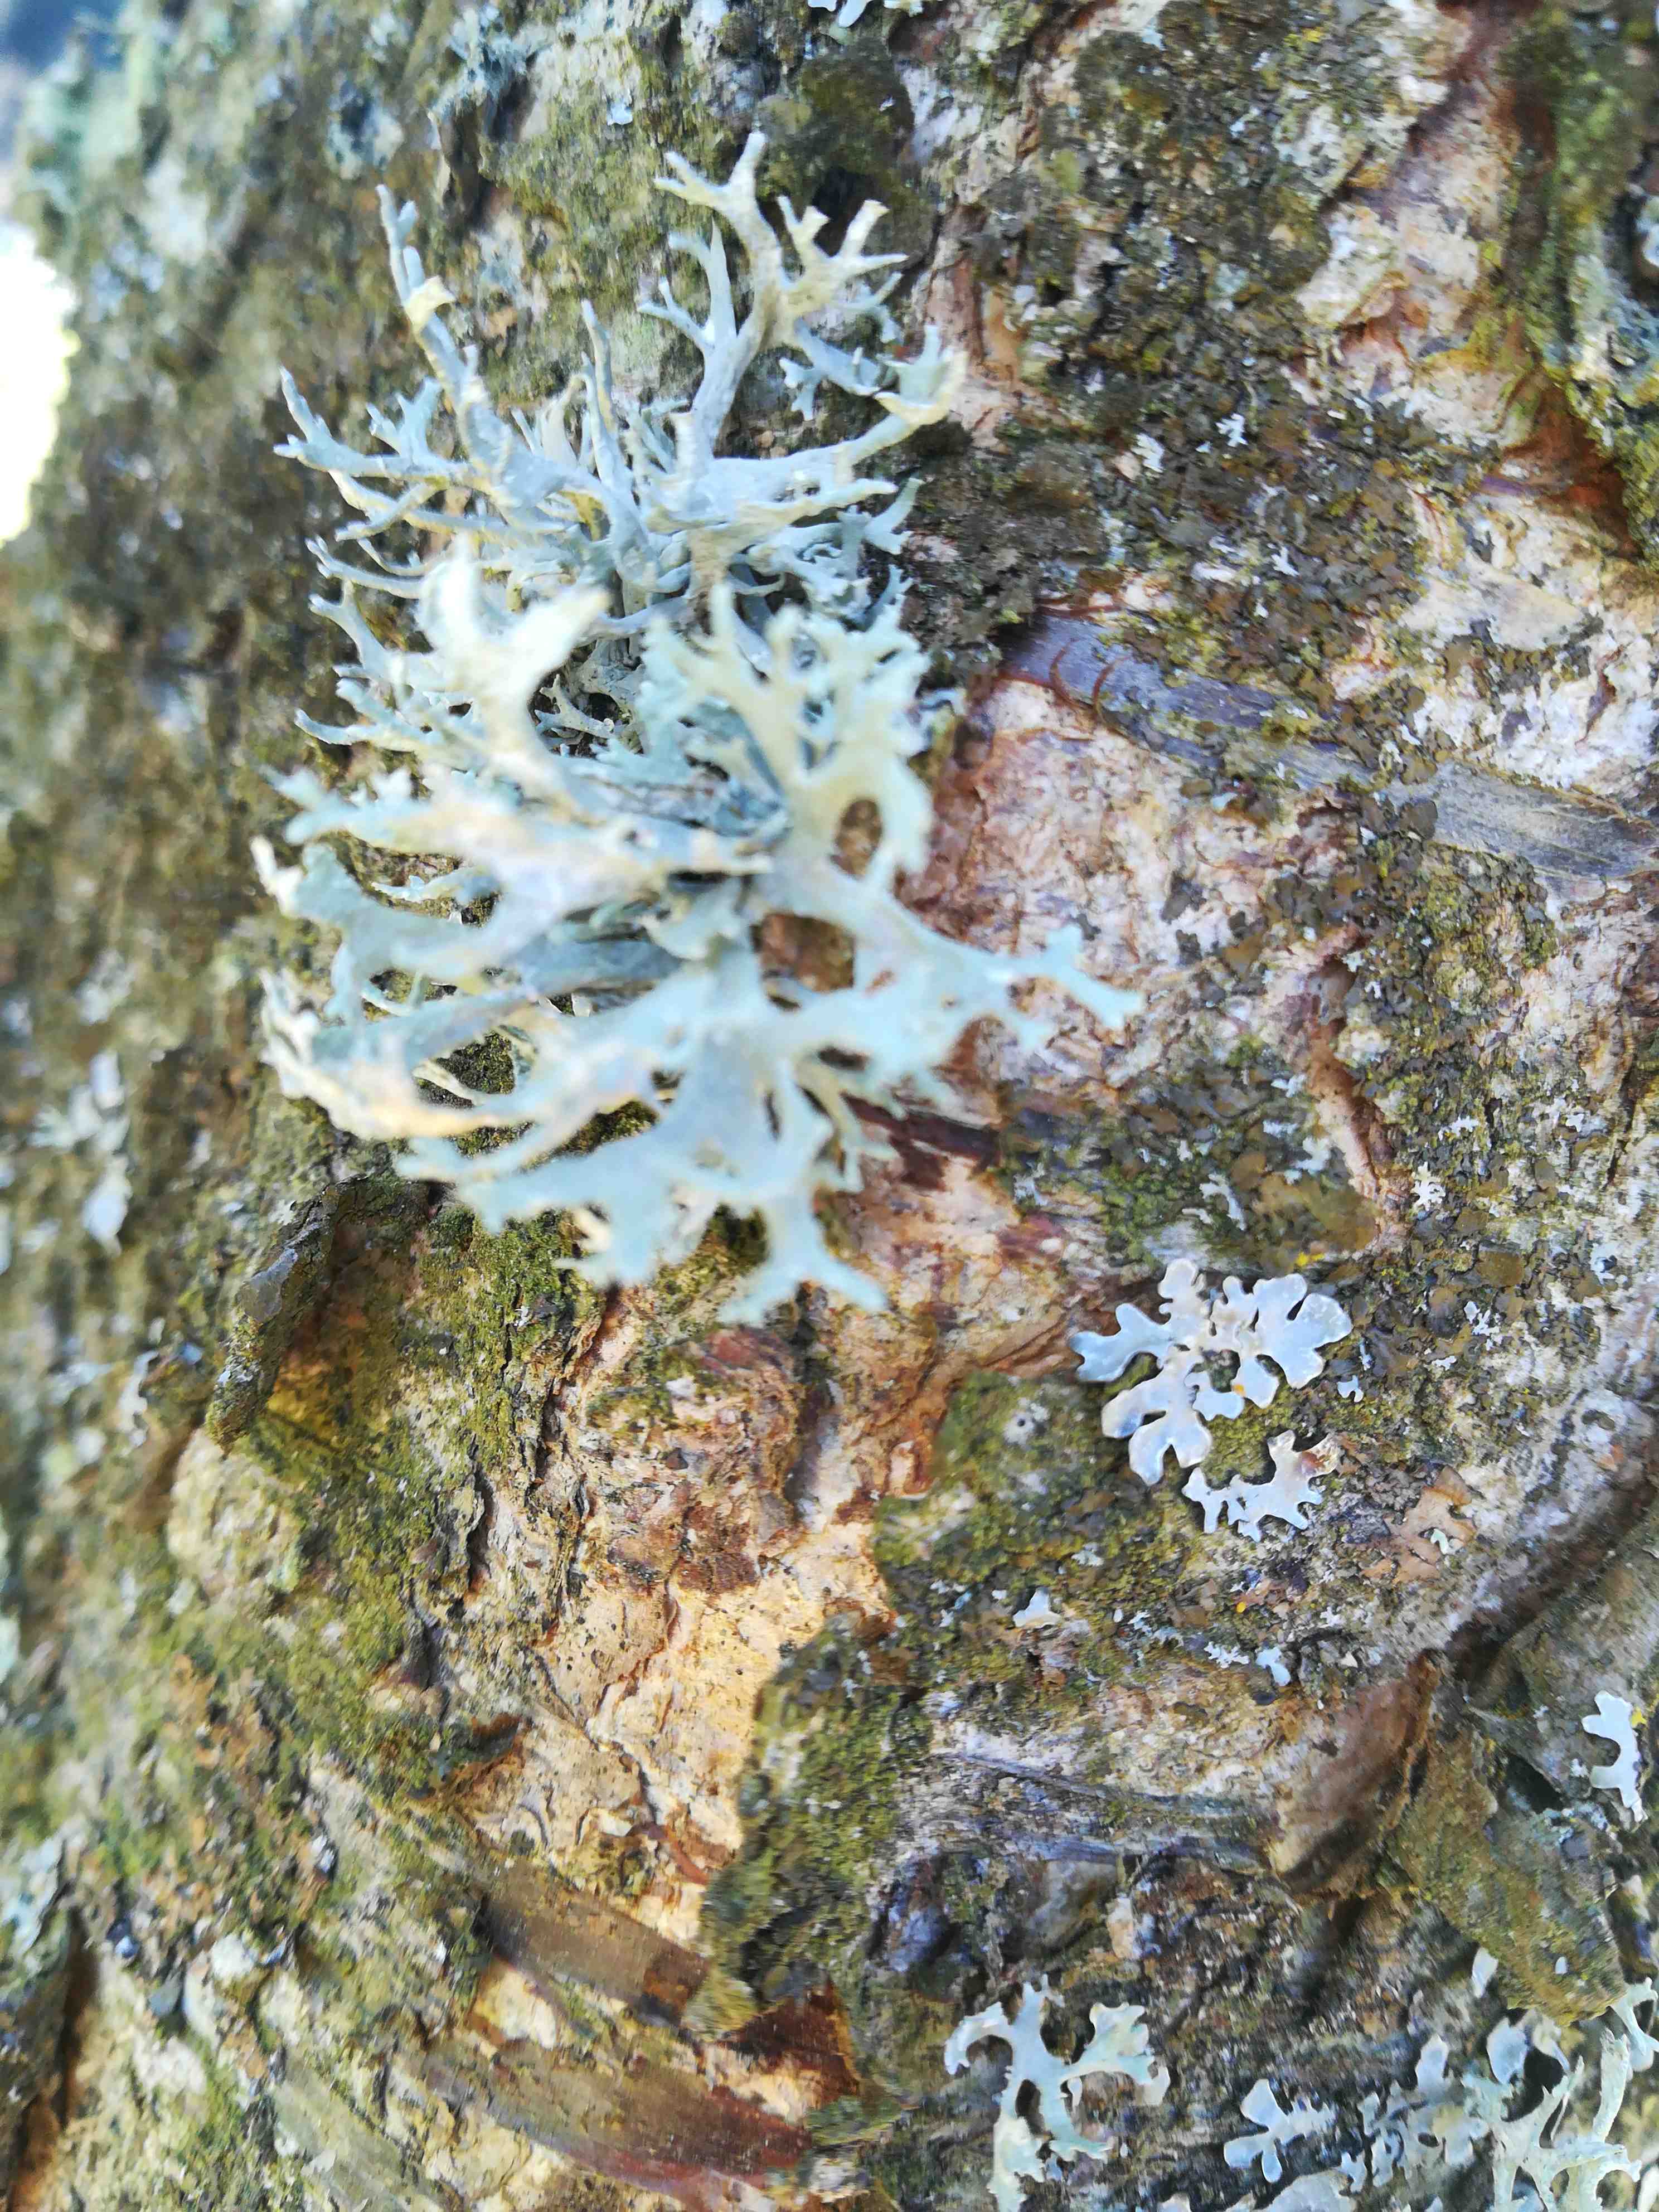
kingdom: Fungi
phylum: Ascomycota
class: Lecanoromycetes
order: Lecanorales
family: Parmeliaceae
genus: Parmelia
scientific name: Parmelia sulcata
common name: rynket skållav
